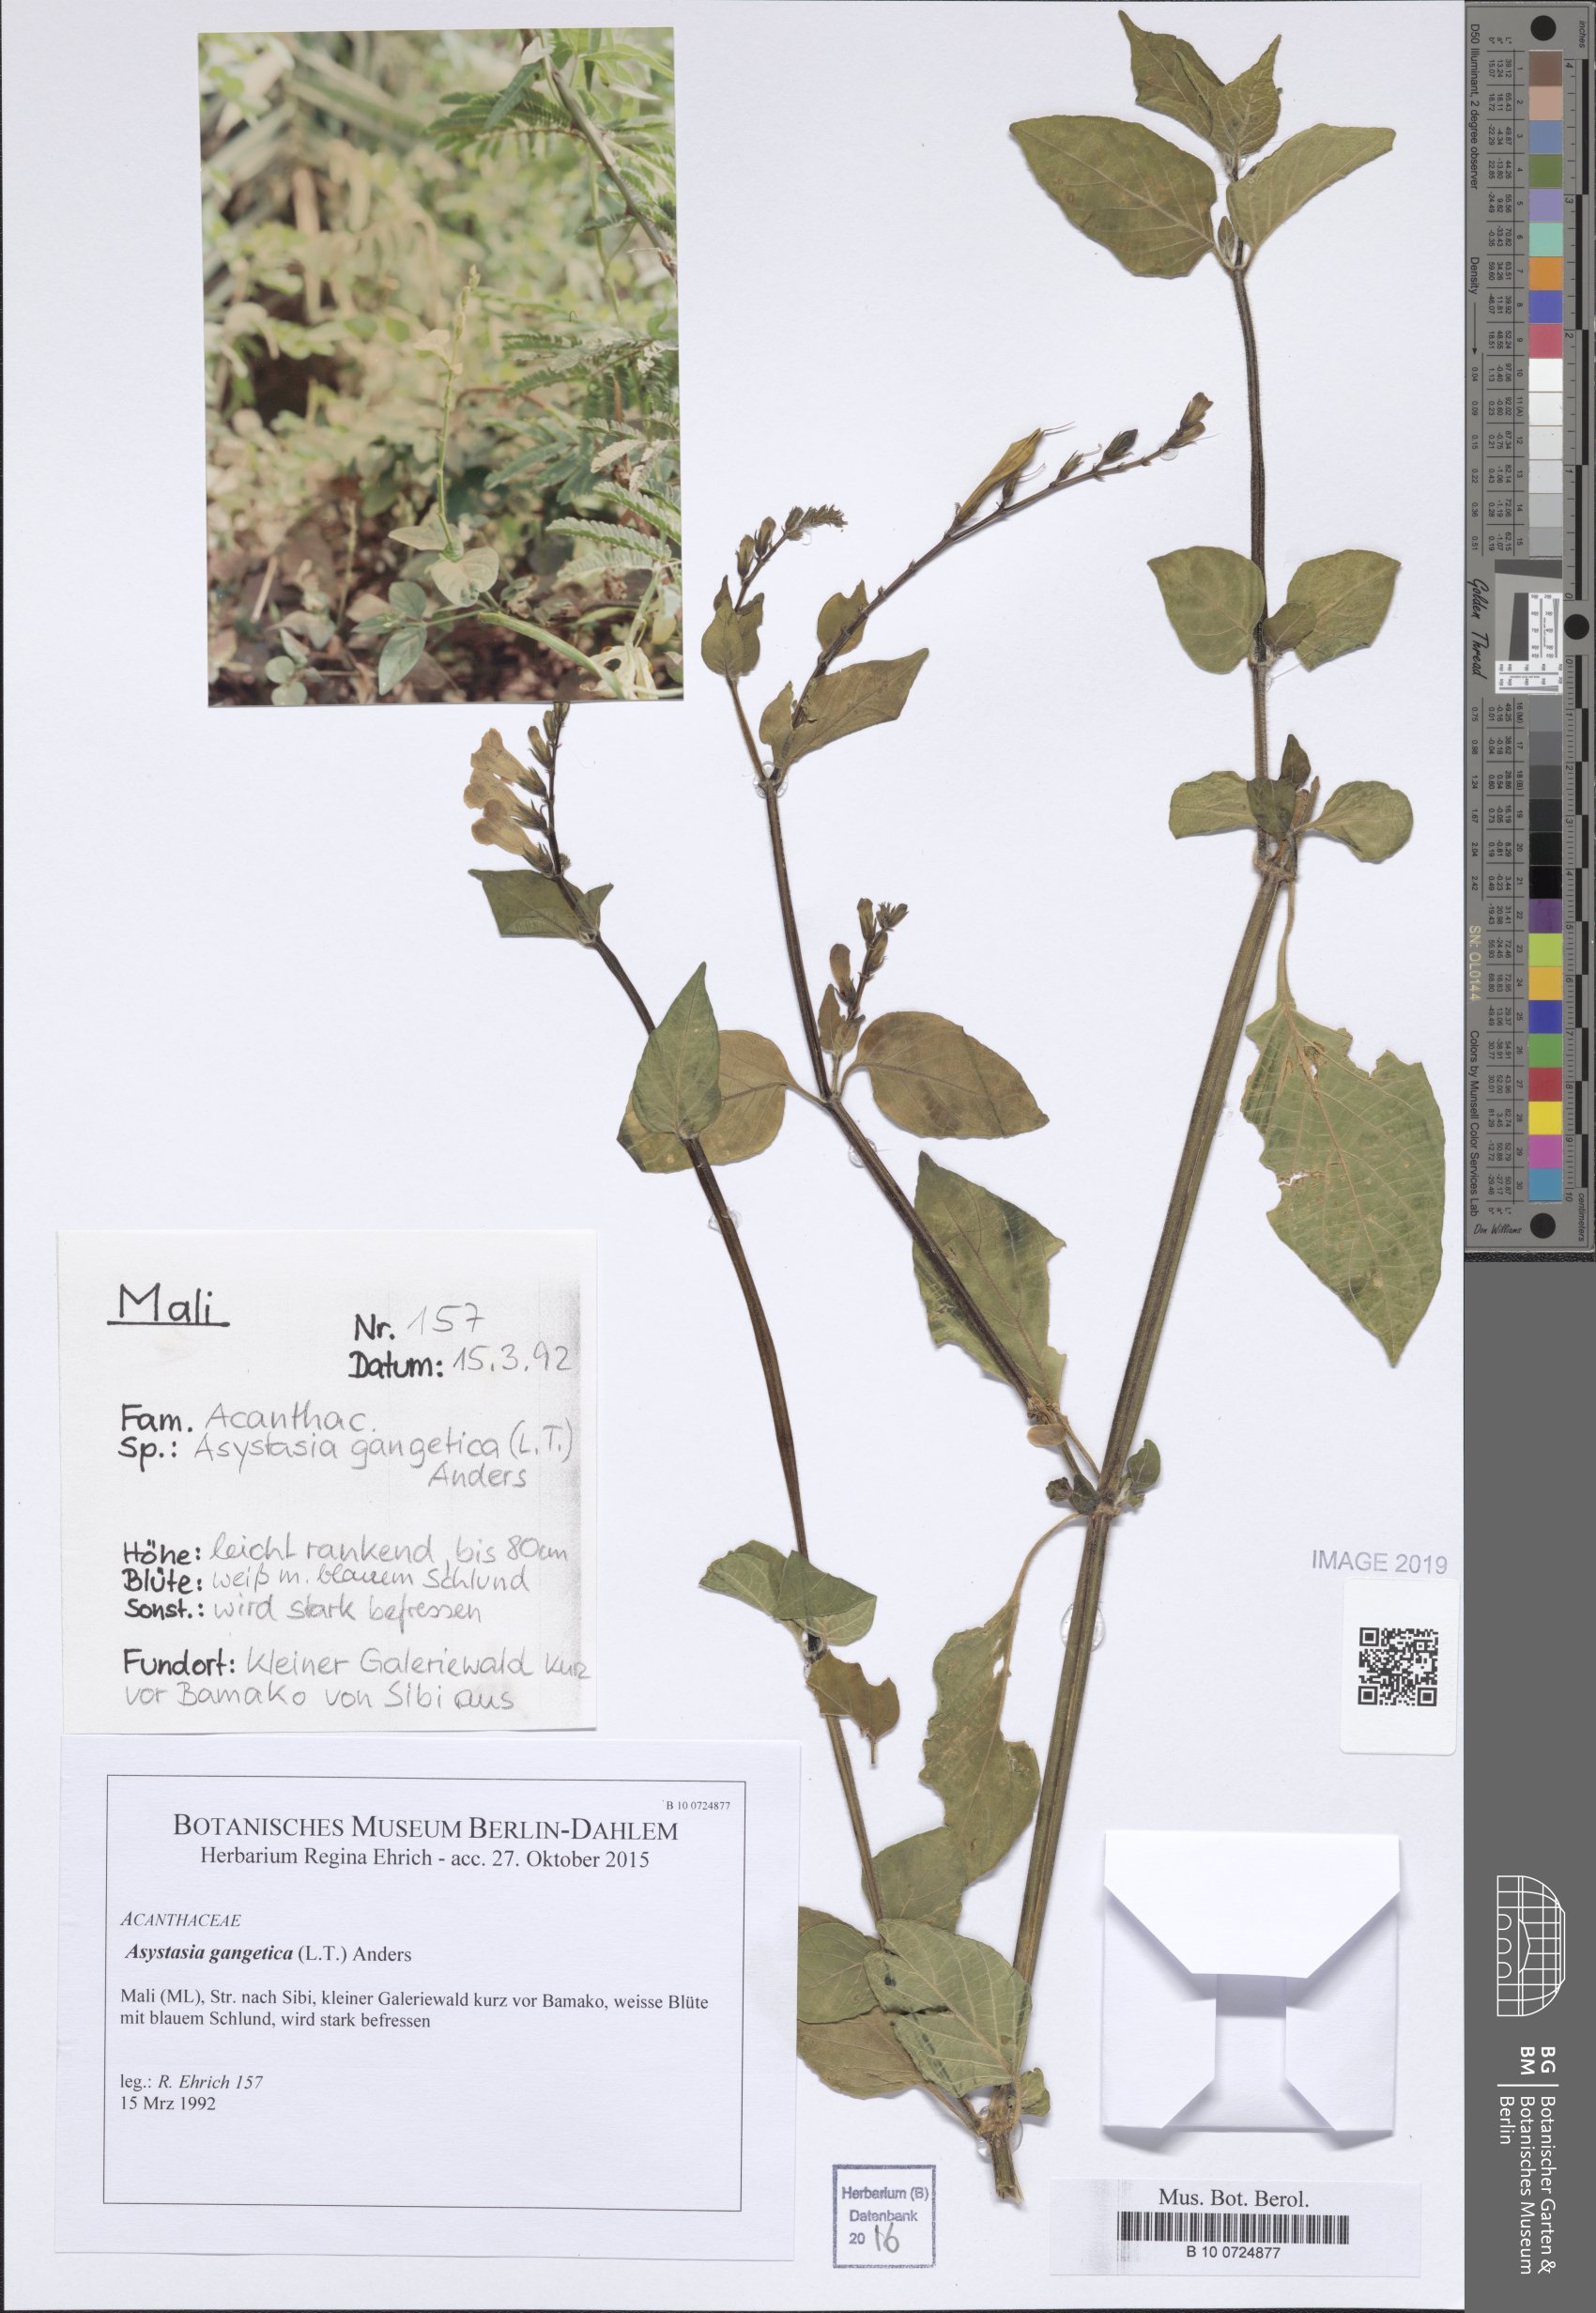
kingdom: Plantae
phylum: Tracheophyta
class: Magnoliopsida
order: Lamiales
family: Acanthaceae
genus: Asystasia
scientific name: Asystasia gangetica
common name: Chinese violet
